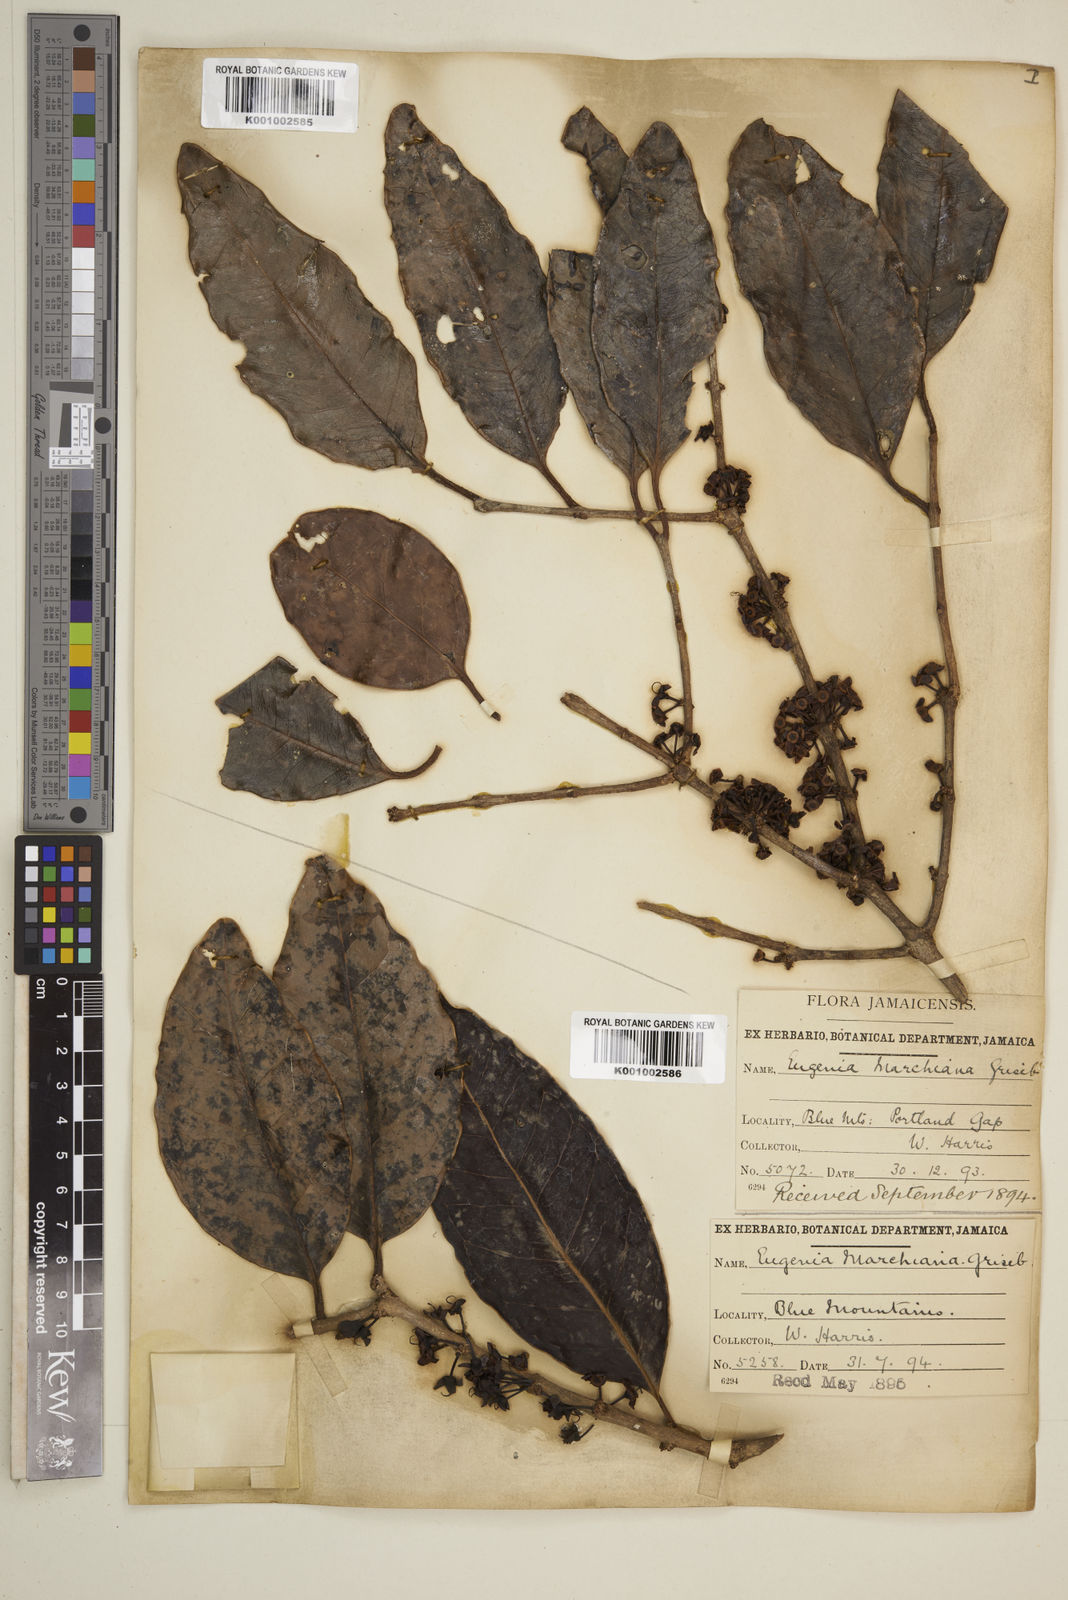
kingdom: Plantae
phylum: Tracheophyta
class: Magnoliopsida
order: Myrtales
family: Myrtaceae
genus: Eugenia
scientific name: Eugenia marshiana
